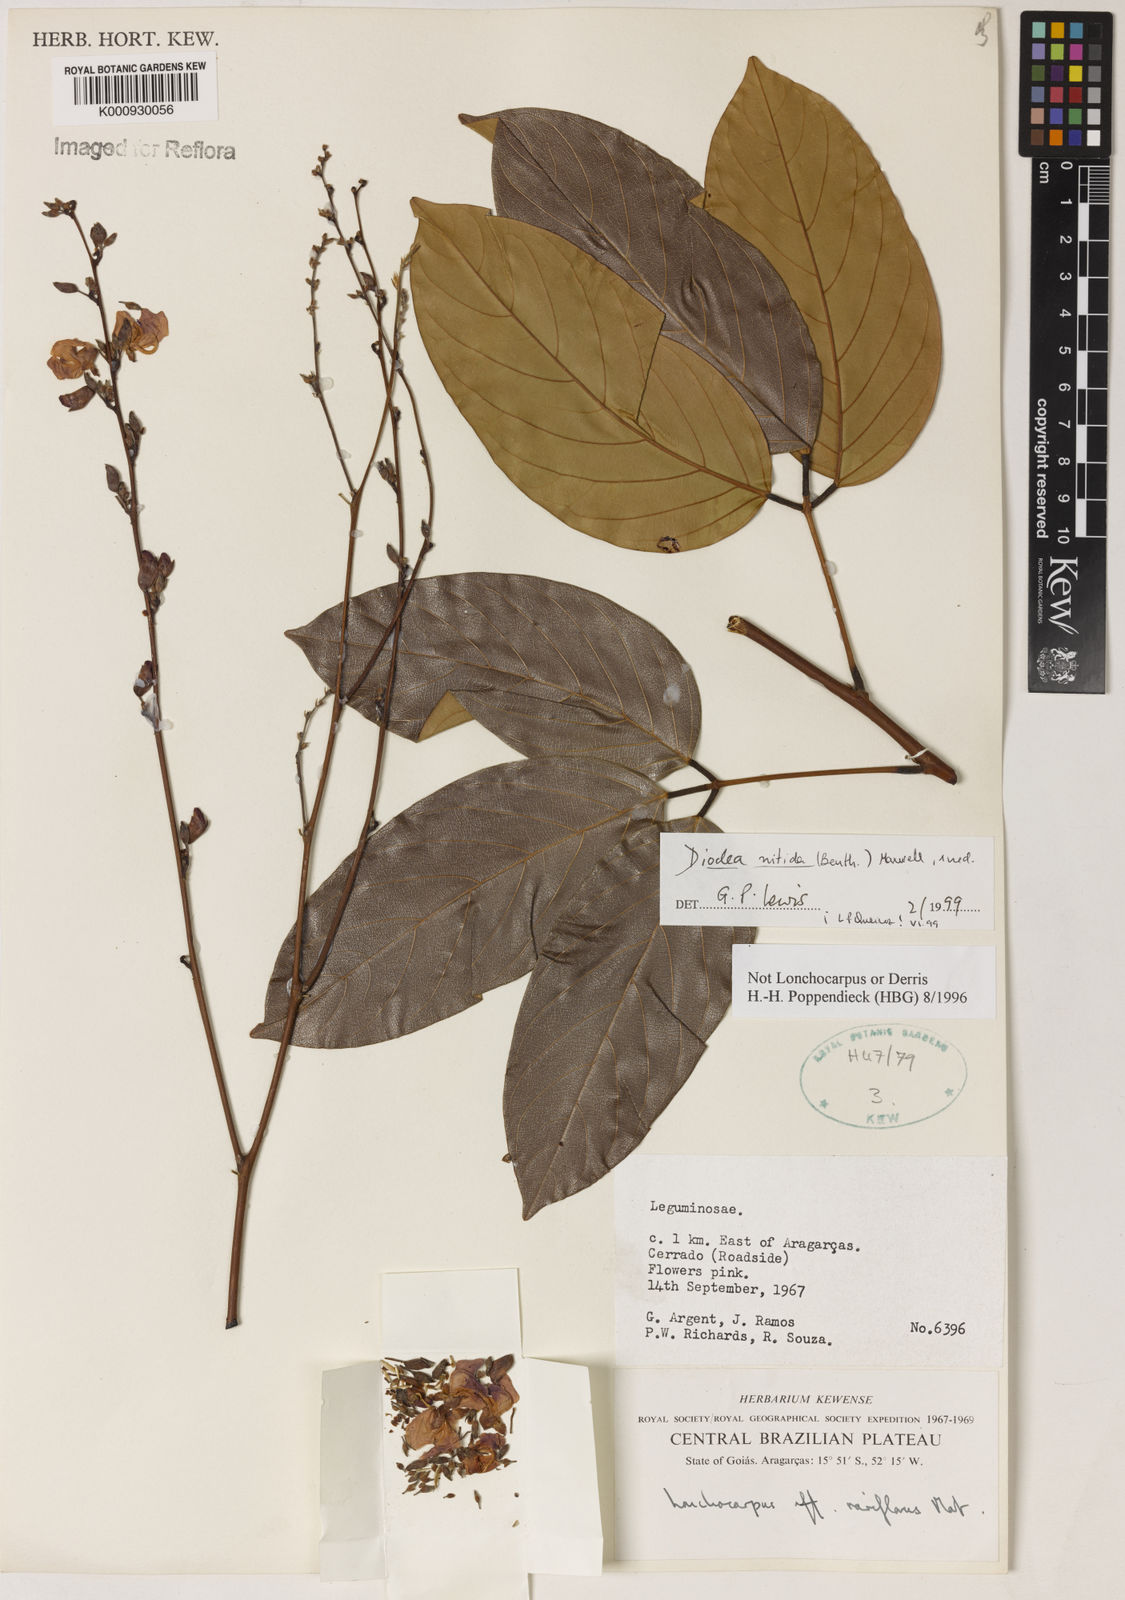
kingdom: Plantae
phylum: Tracheophyta
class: Magnoliopsida
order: Fabales
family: Fabaceae
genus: Dioclea
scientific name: Dioclea
